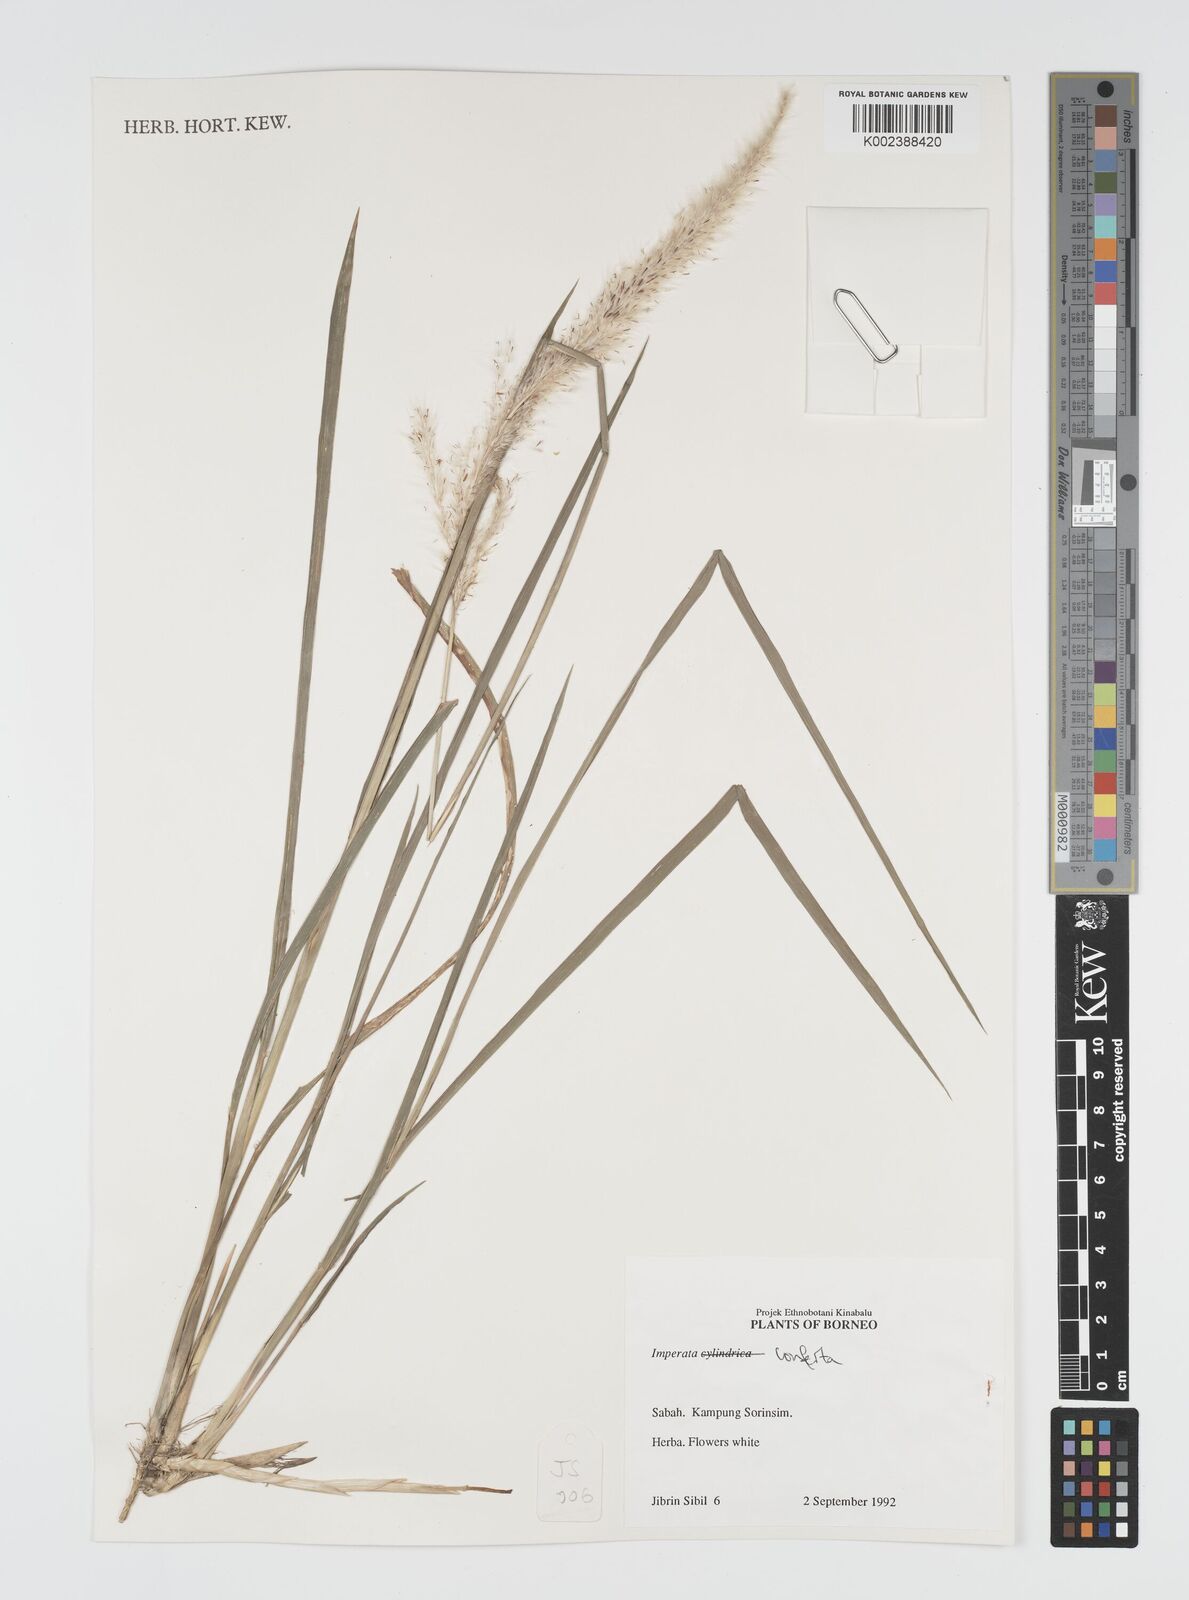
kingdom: Plantae
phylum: Tracheophyta
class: Liliopsida
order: Poales
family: Poaceae
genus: Imperata
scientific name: Imperata conferta
